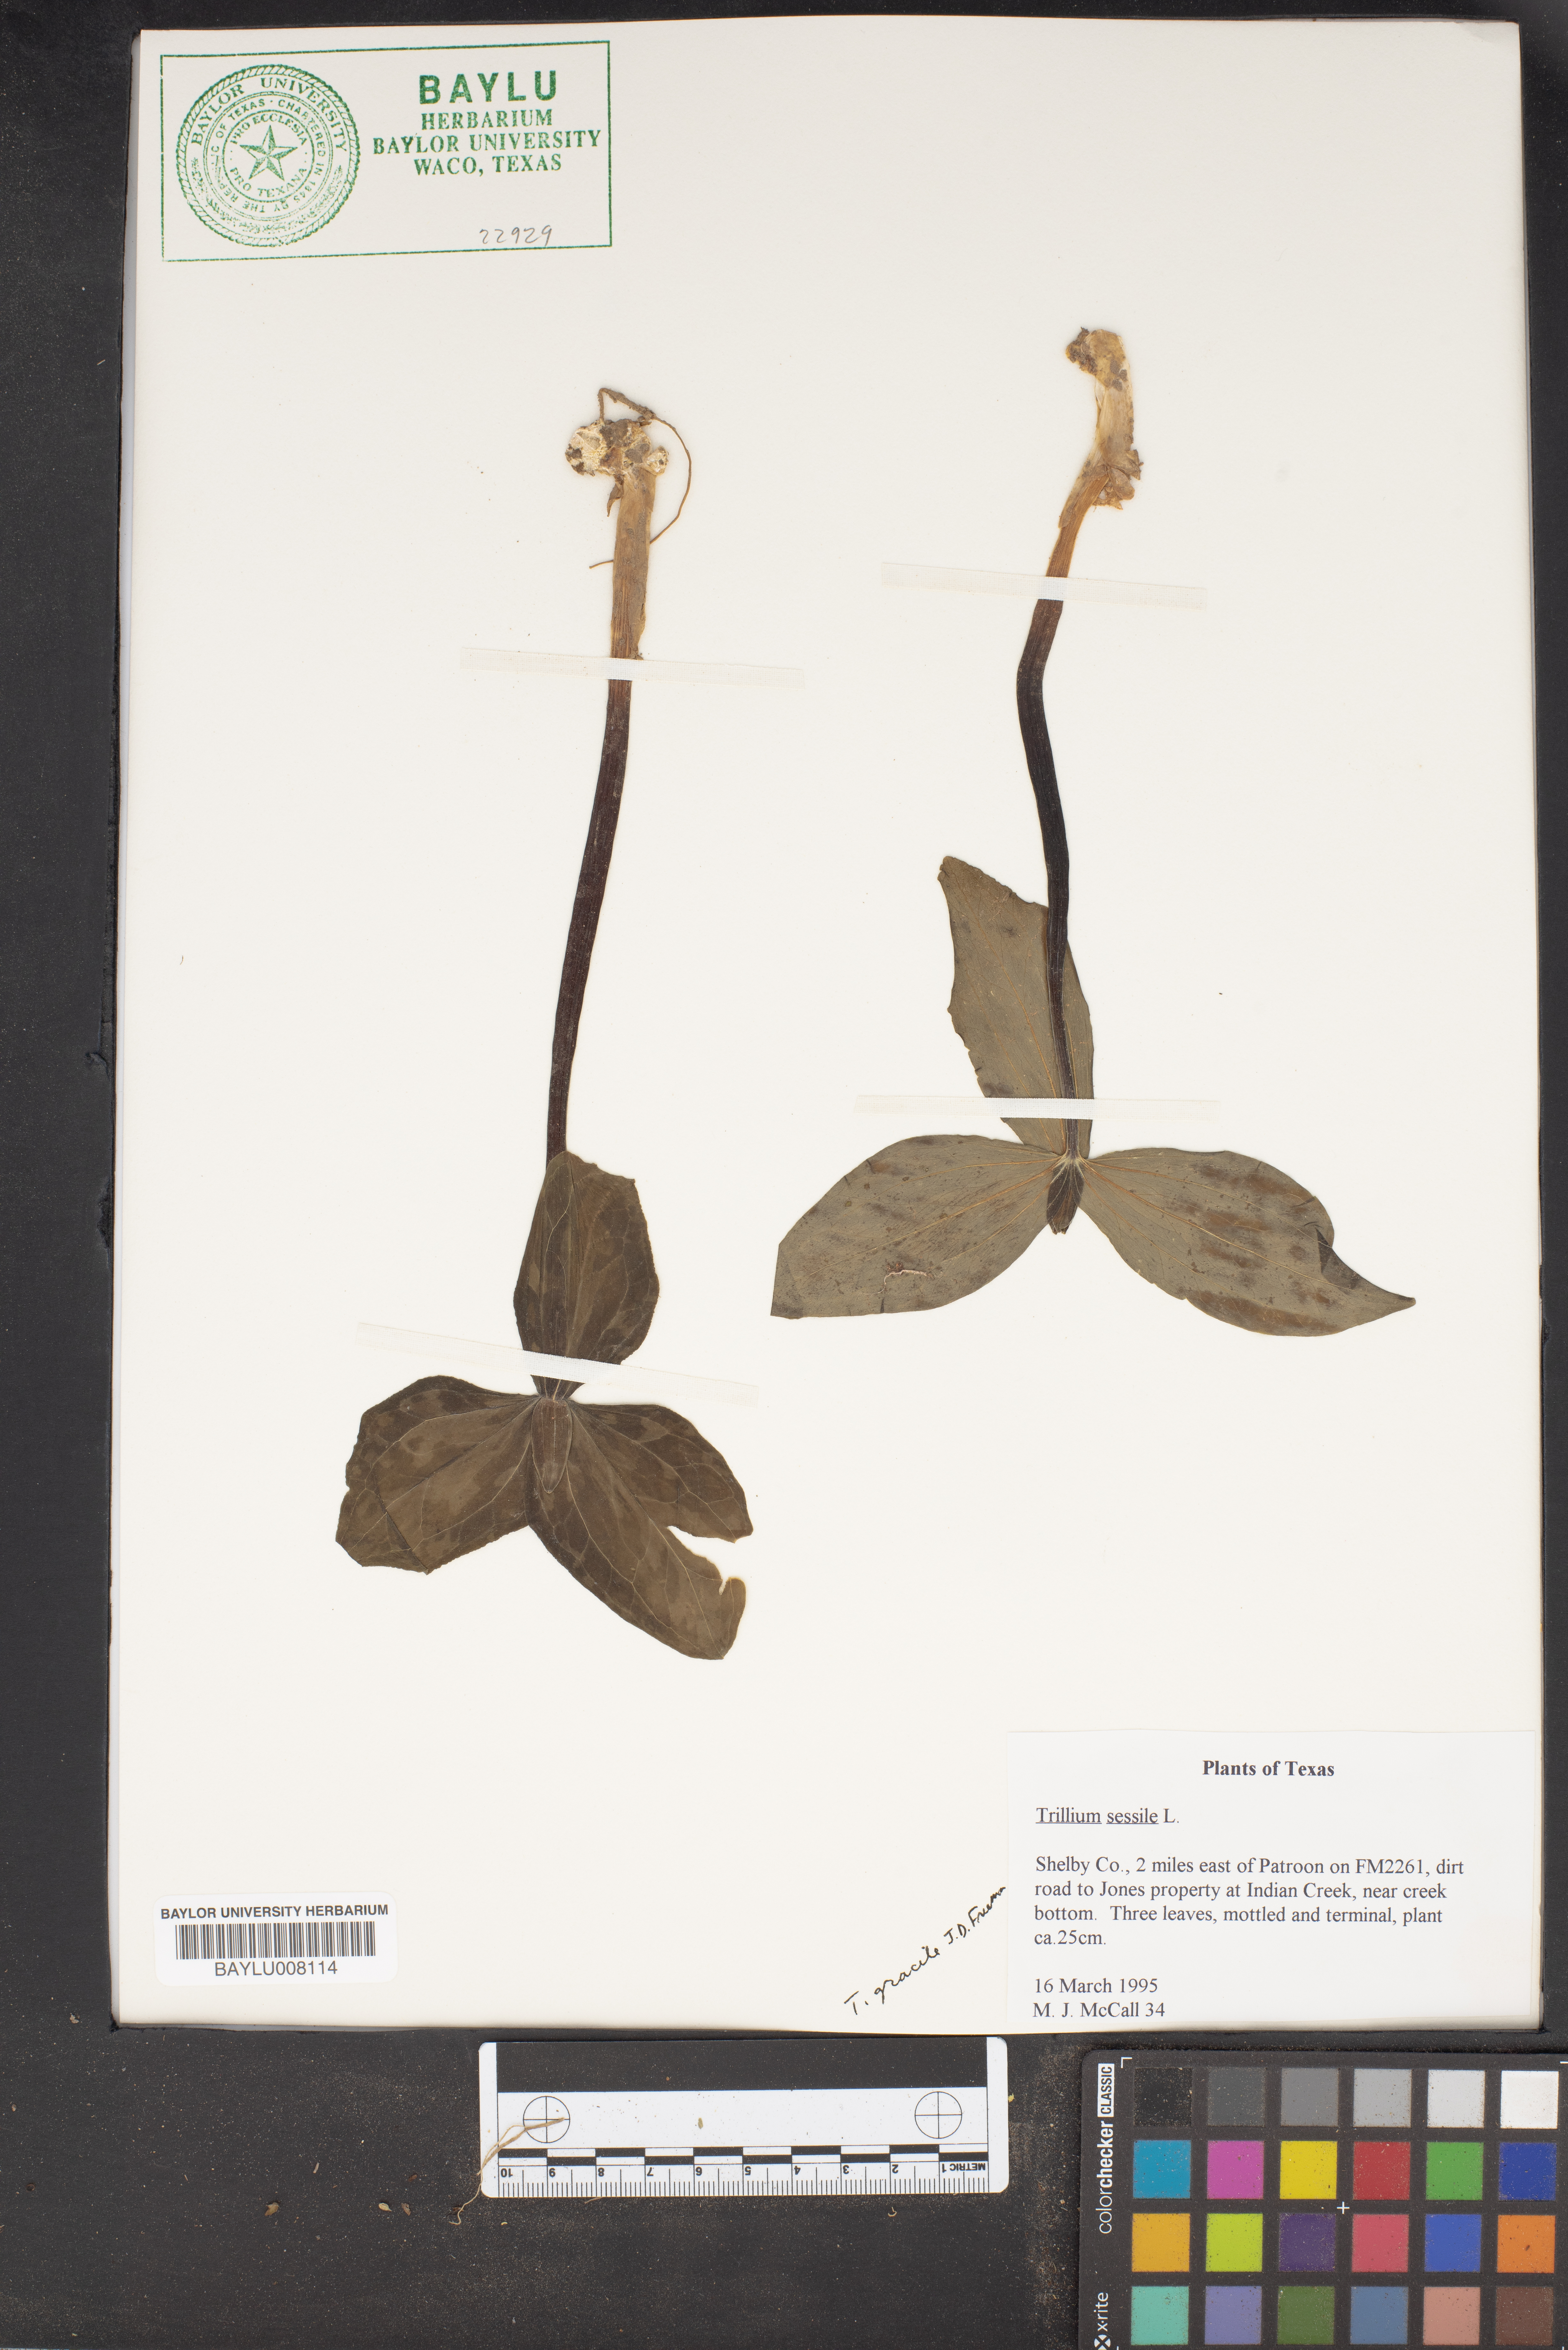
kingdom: Plantae
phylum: Tracheophyta
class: Liliopsida
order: Liliales
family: Melanthiaceae
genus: Trillium
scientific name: Trillium sessile
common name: Sessile trillium
